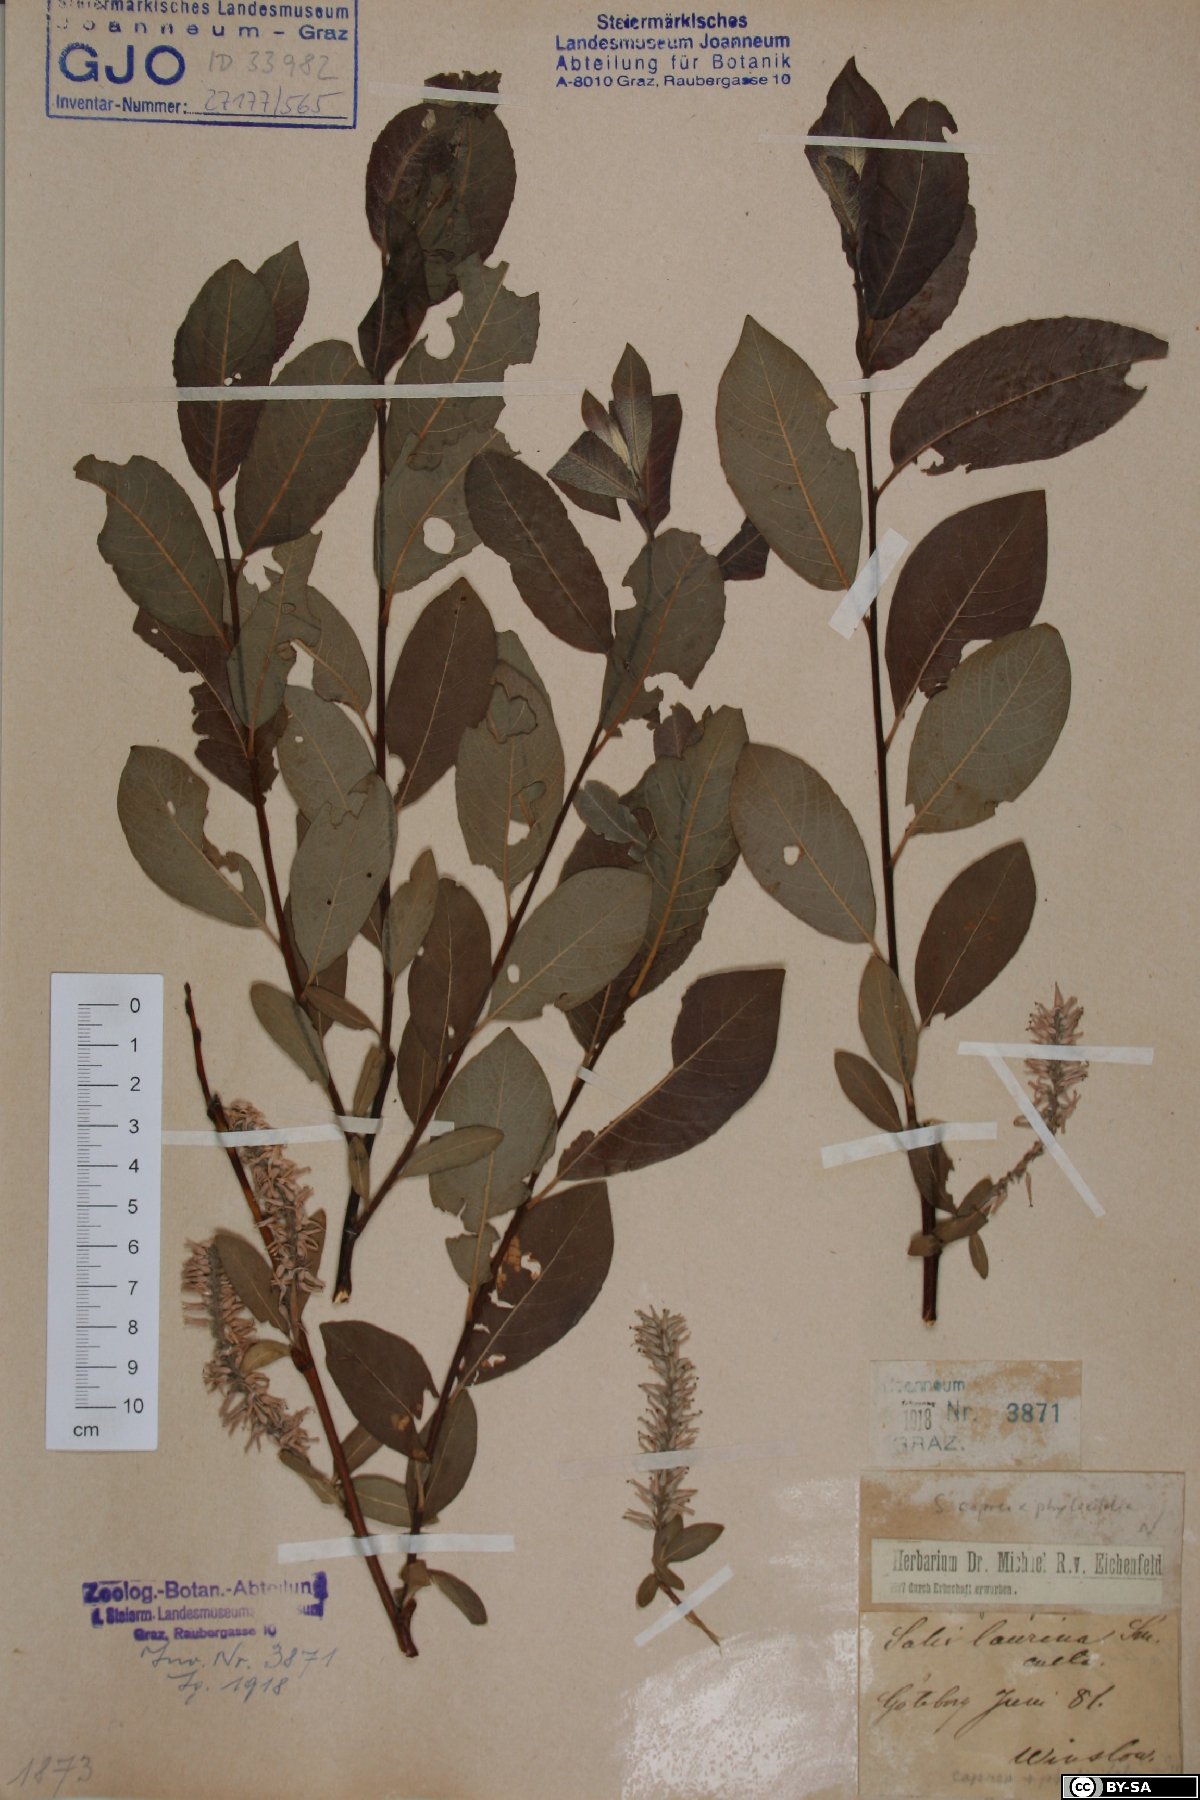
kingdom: Plantae
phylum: Tracheophyta
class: Magnoliopsida
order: Malpighiales
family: Salicaceae
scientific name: Salicaceae
